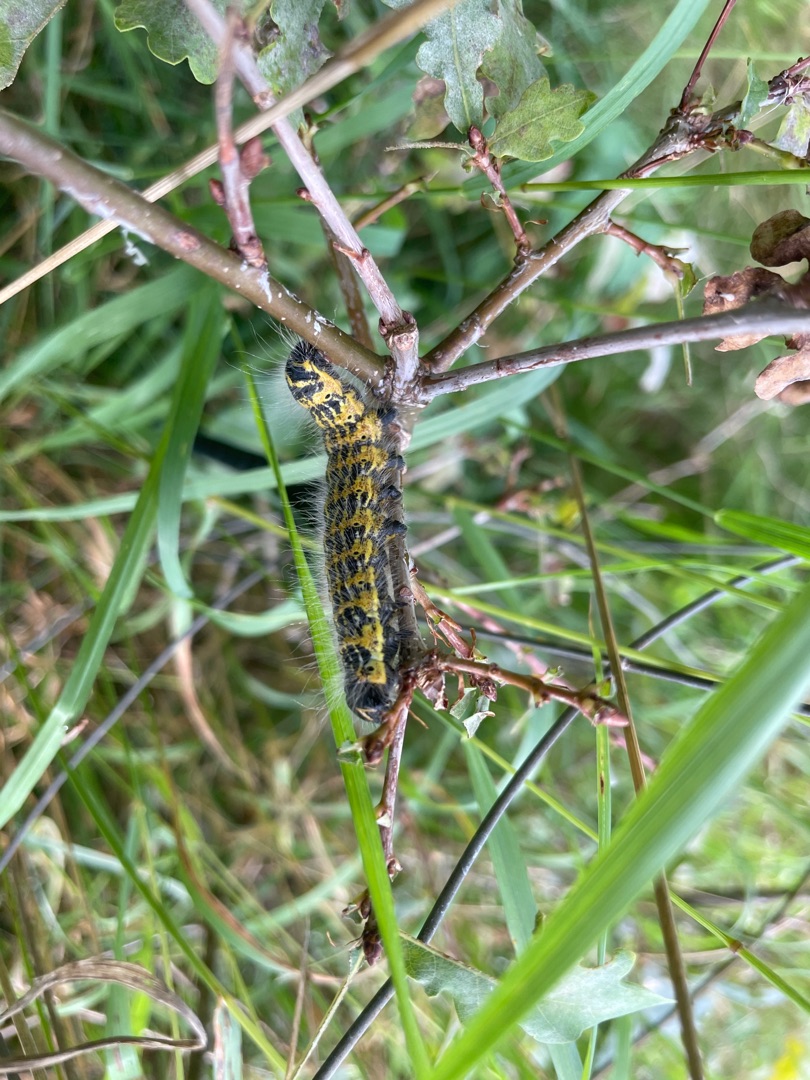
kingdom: Animalia
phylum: Arthropoda
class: Insecta
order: Lepidoptera
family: Notodontidae
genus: Phalera
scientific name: Phalera bucephala
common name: Måneplet
